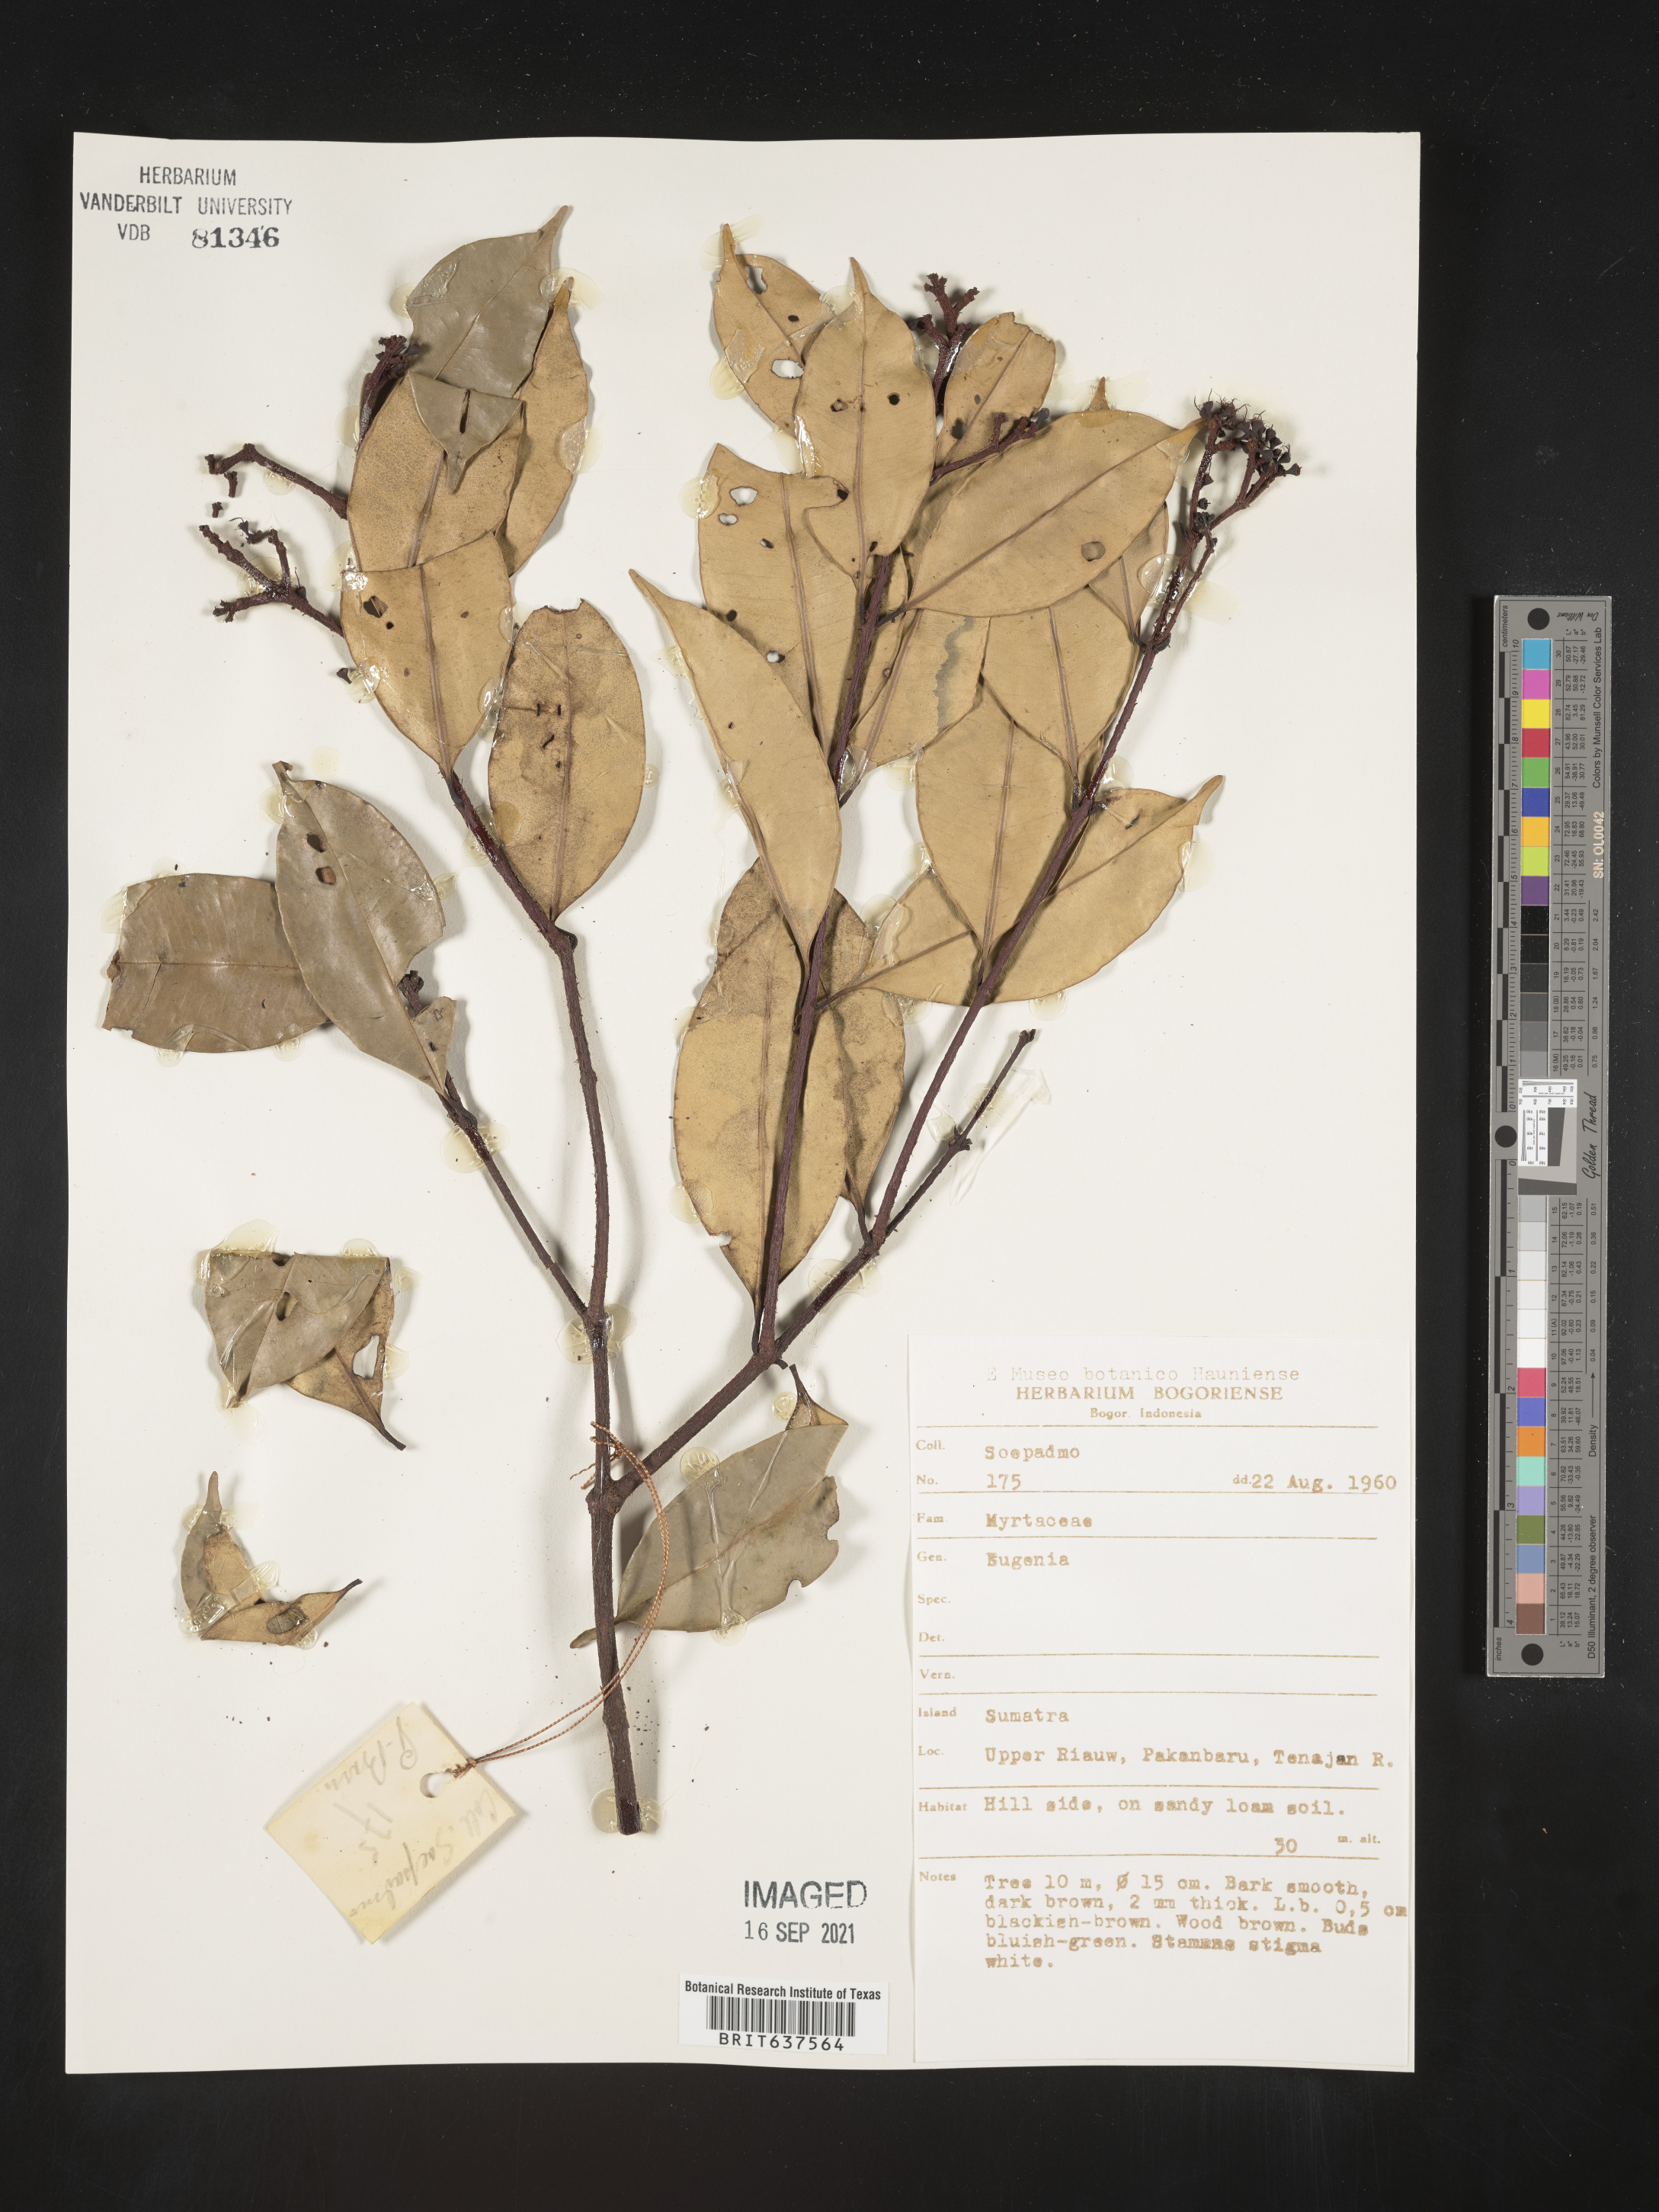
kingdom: Plantae
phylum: Tracheophyta
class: Magnoliopsida
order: Myrtales
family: Myrtaceae
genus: Eugenia
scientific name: Eugenia
